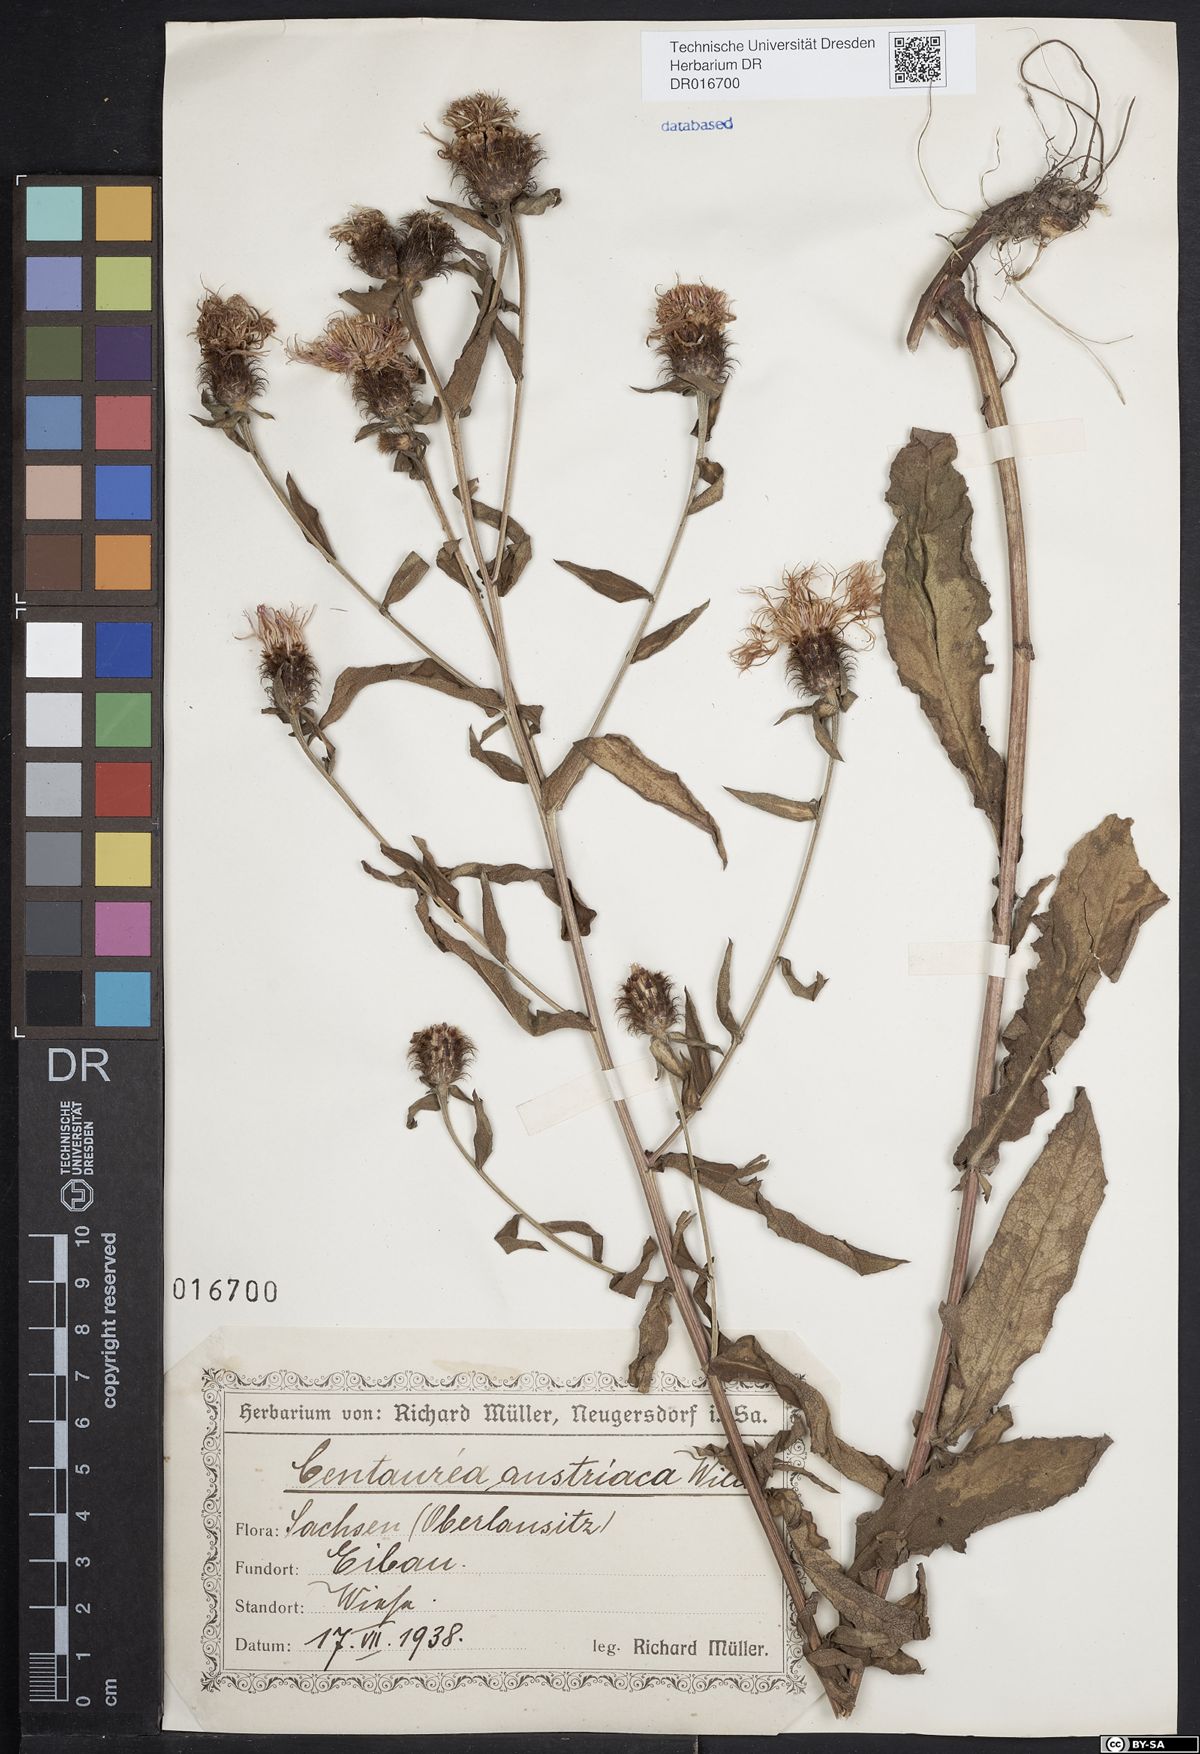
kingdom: Plantae
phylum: Tracheophyta
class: Magnoliopsida
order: Asterales
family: Asteraceae
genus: Centaurea
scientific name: Centaurea phrygia
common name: Wig knapweed
